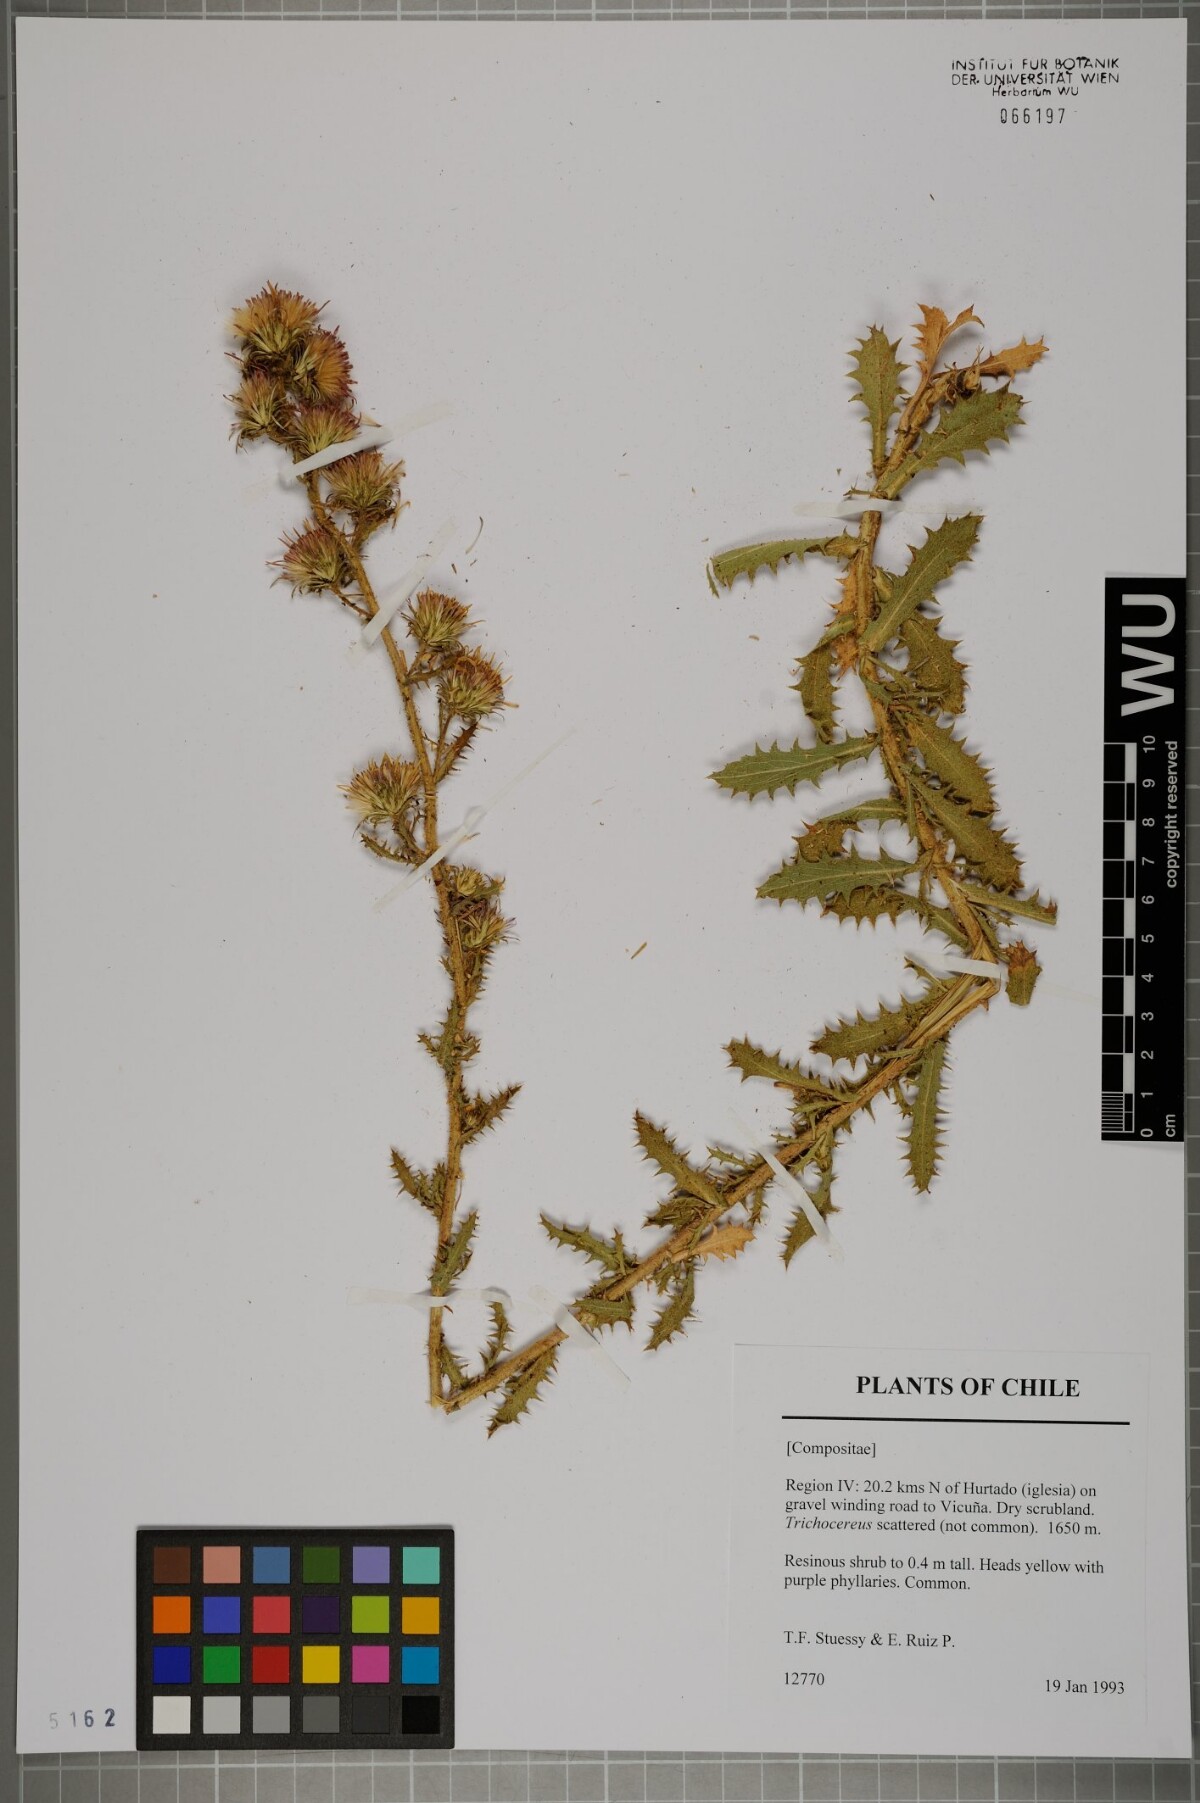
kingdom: Plantae
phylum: Tracheophyta
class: Magnoliopsida
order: Asterales
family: Asteraceae
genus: Haplopappus
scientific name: Haplopappus rigidus
